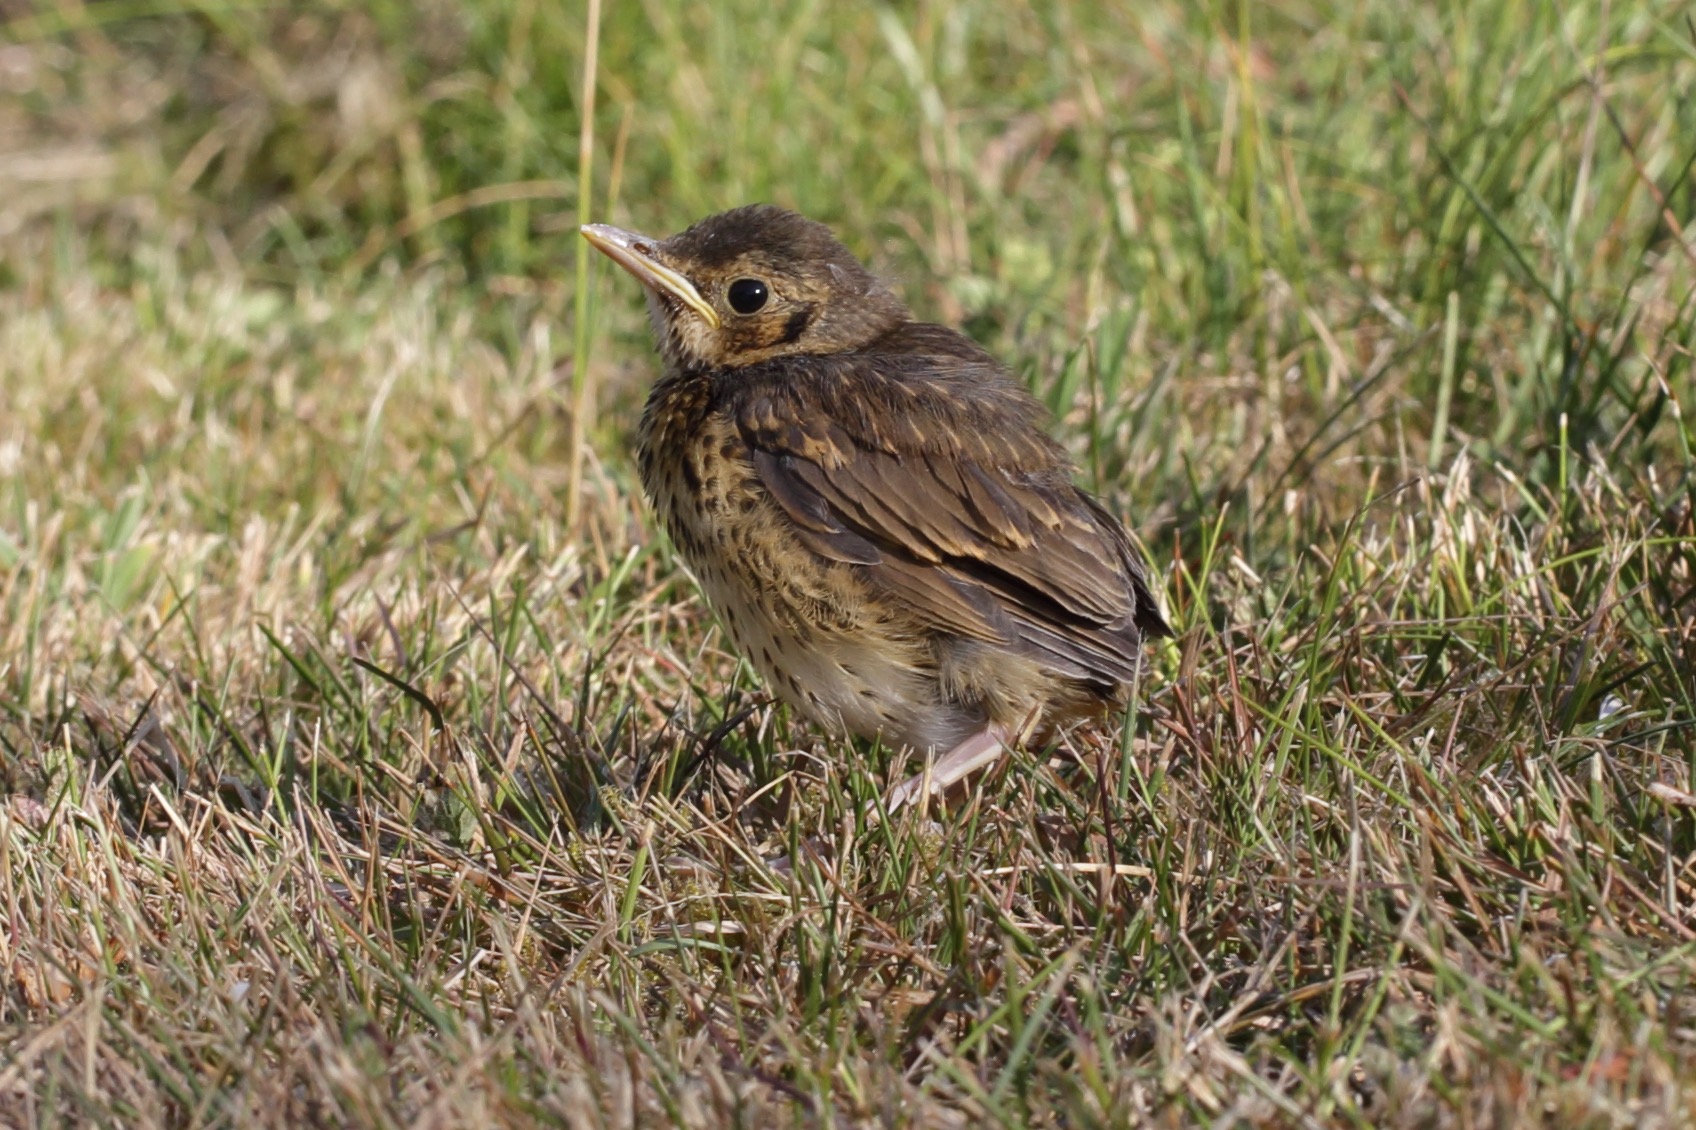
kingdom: Animalia
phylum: Chordata
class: Aves
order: Passeriformes
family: Turdidae
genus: Turdus
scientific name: Turdus philomelos
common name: Sangdrossel
